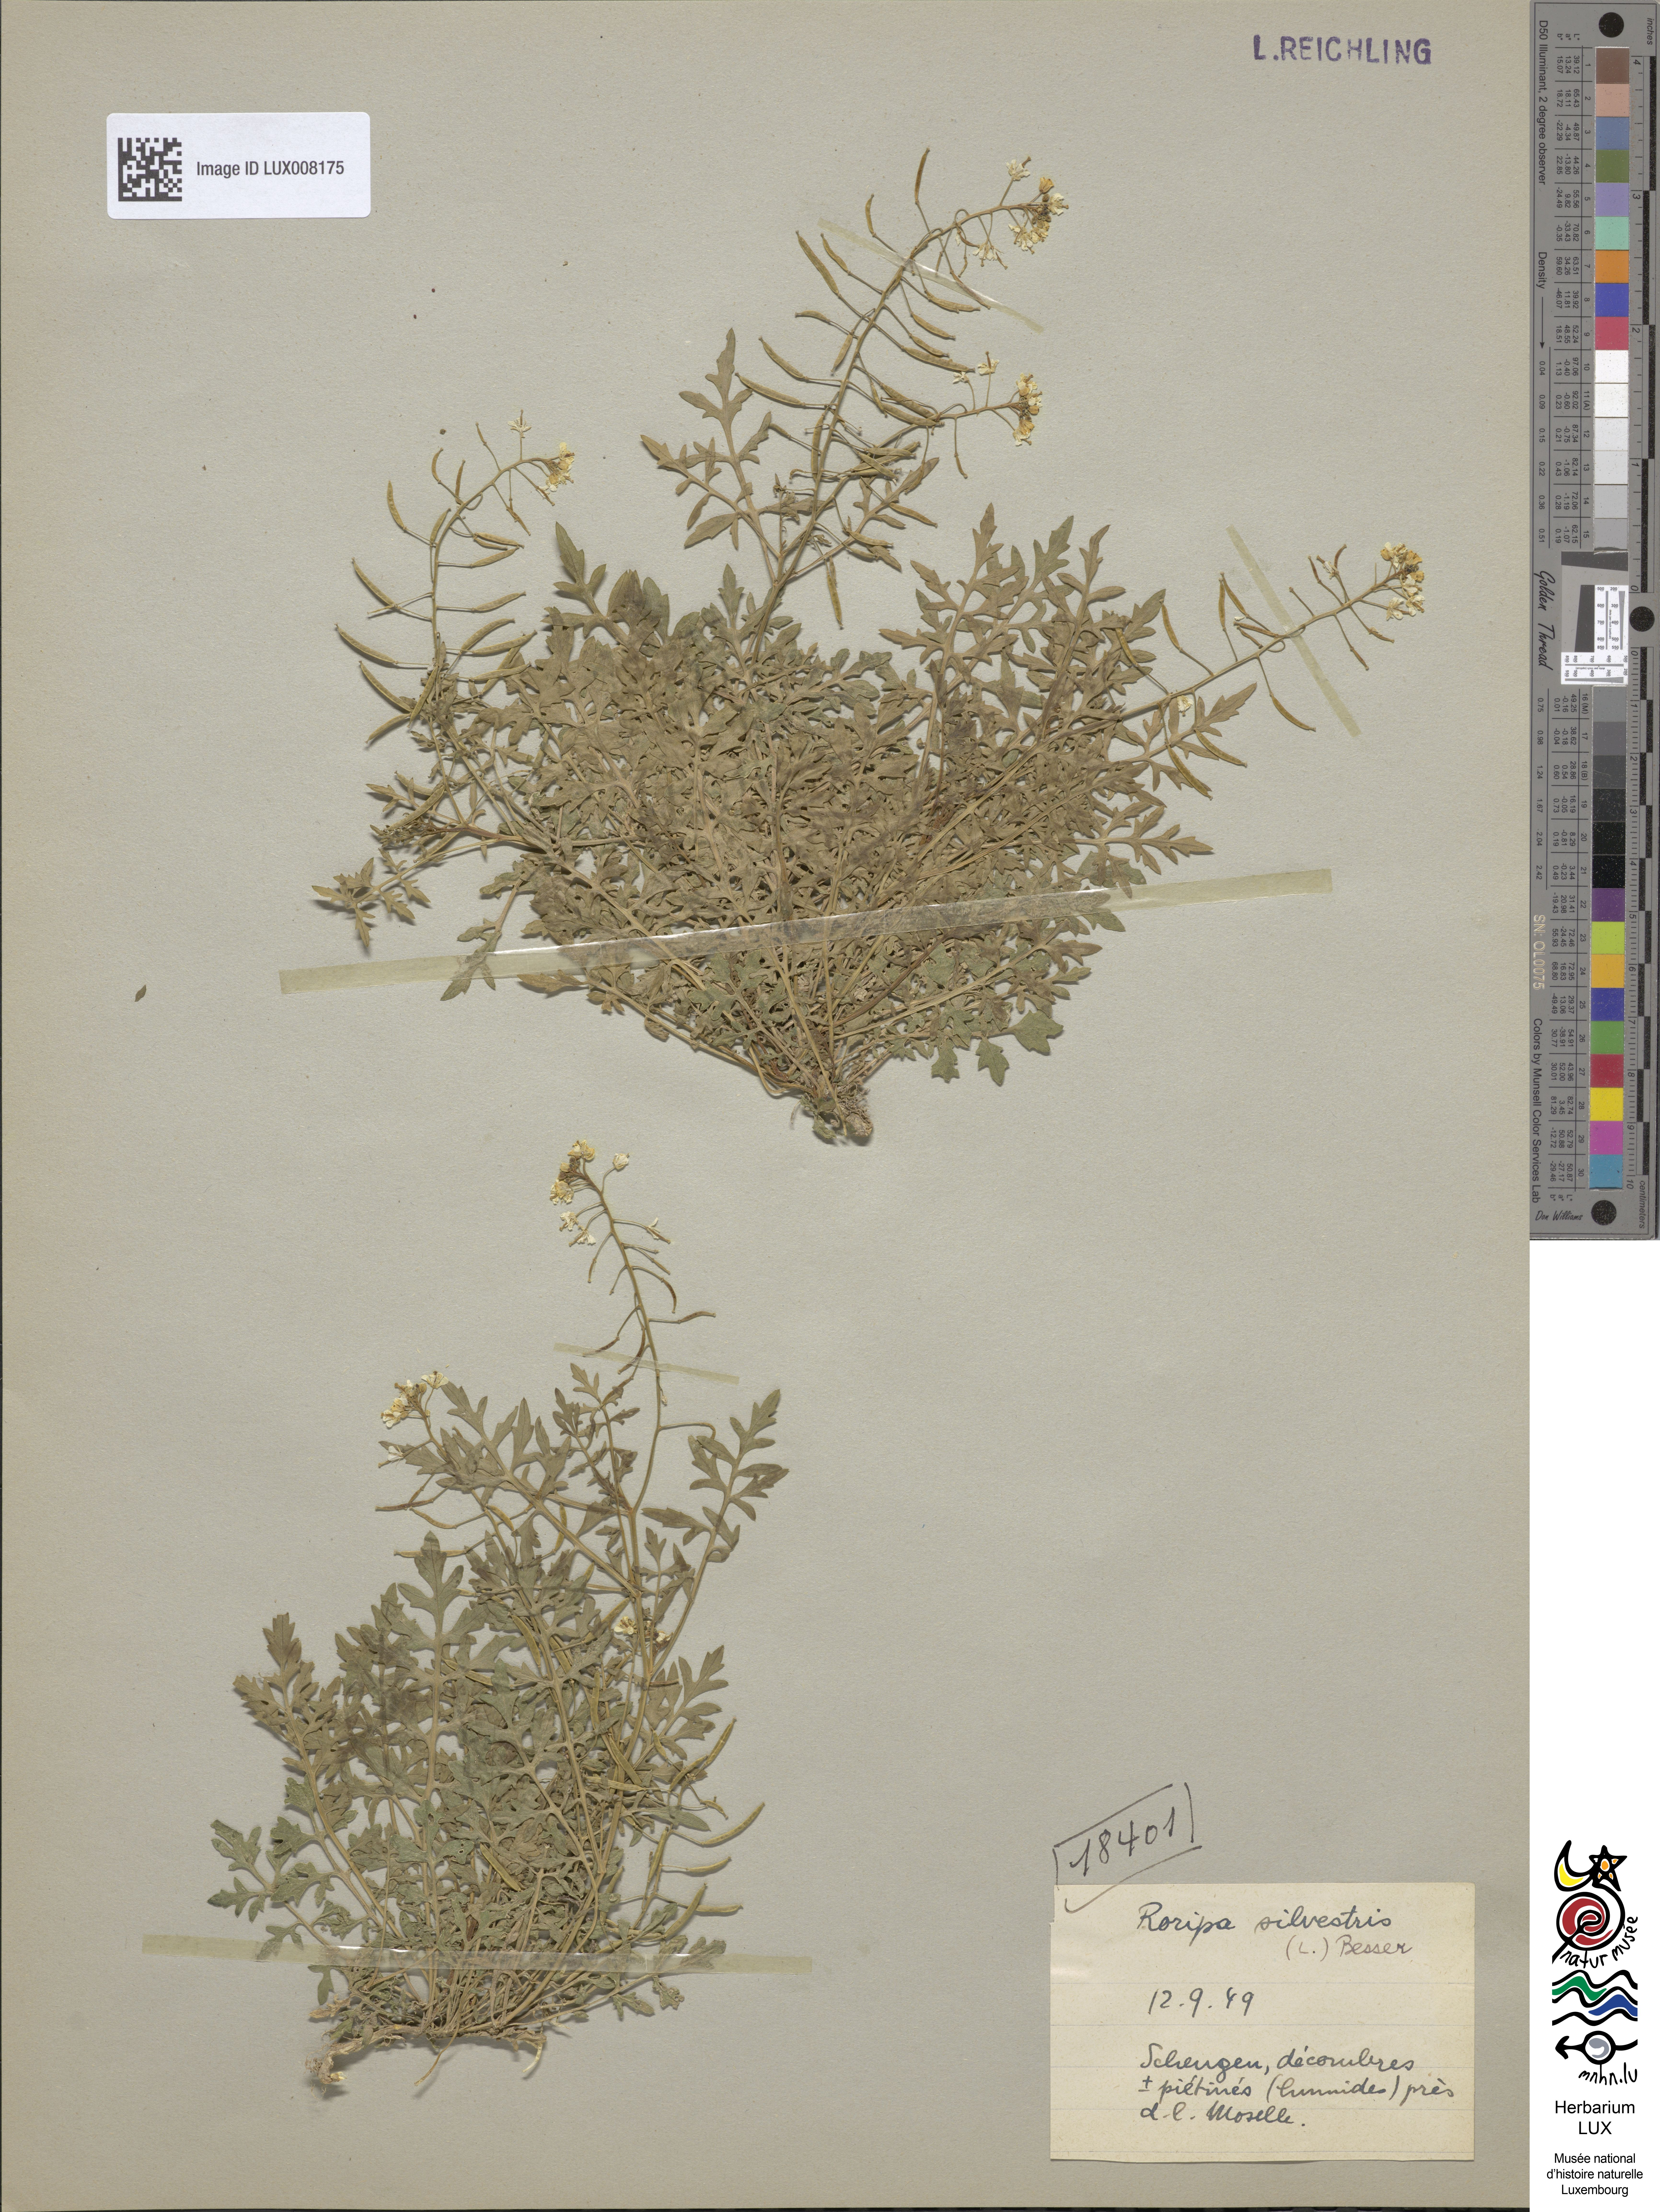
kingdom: Plantae
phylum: Tracheophyta
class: Magnoliopsida
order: Brassicales
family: Brassicaceae
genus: Rorippa
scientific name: Rorippa sylvestris
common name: Creeping yellowcress
